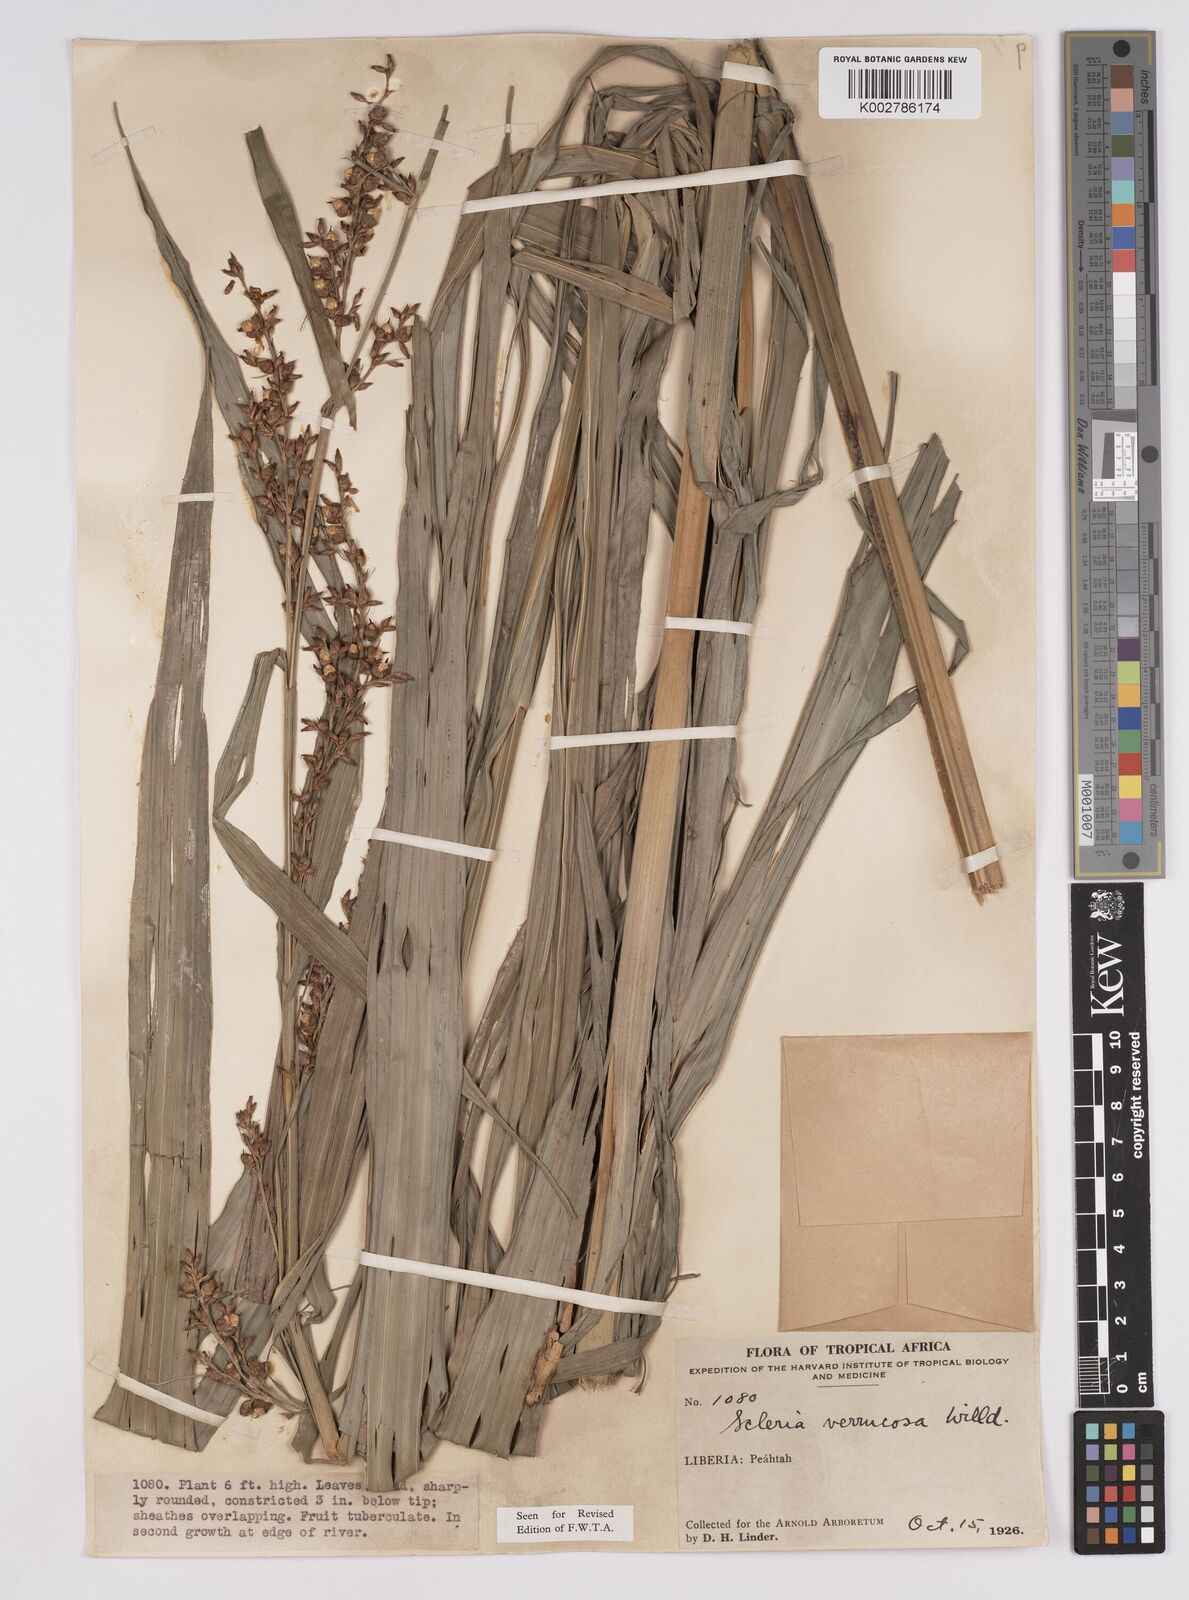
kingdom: Plantae
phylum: Tracheophyta
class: Liliopsida
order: Poales
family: Cyperaceae
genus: Scleria
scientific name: Scleria verrucosa
